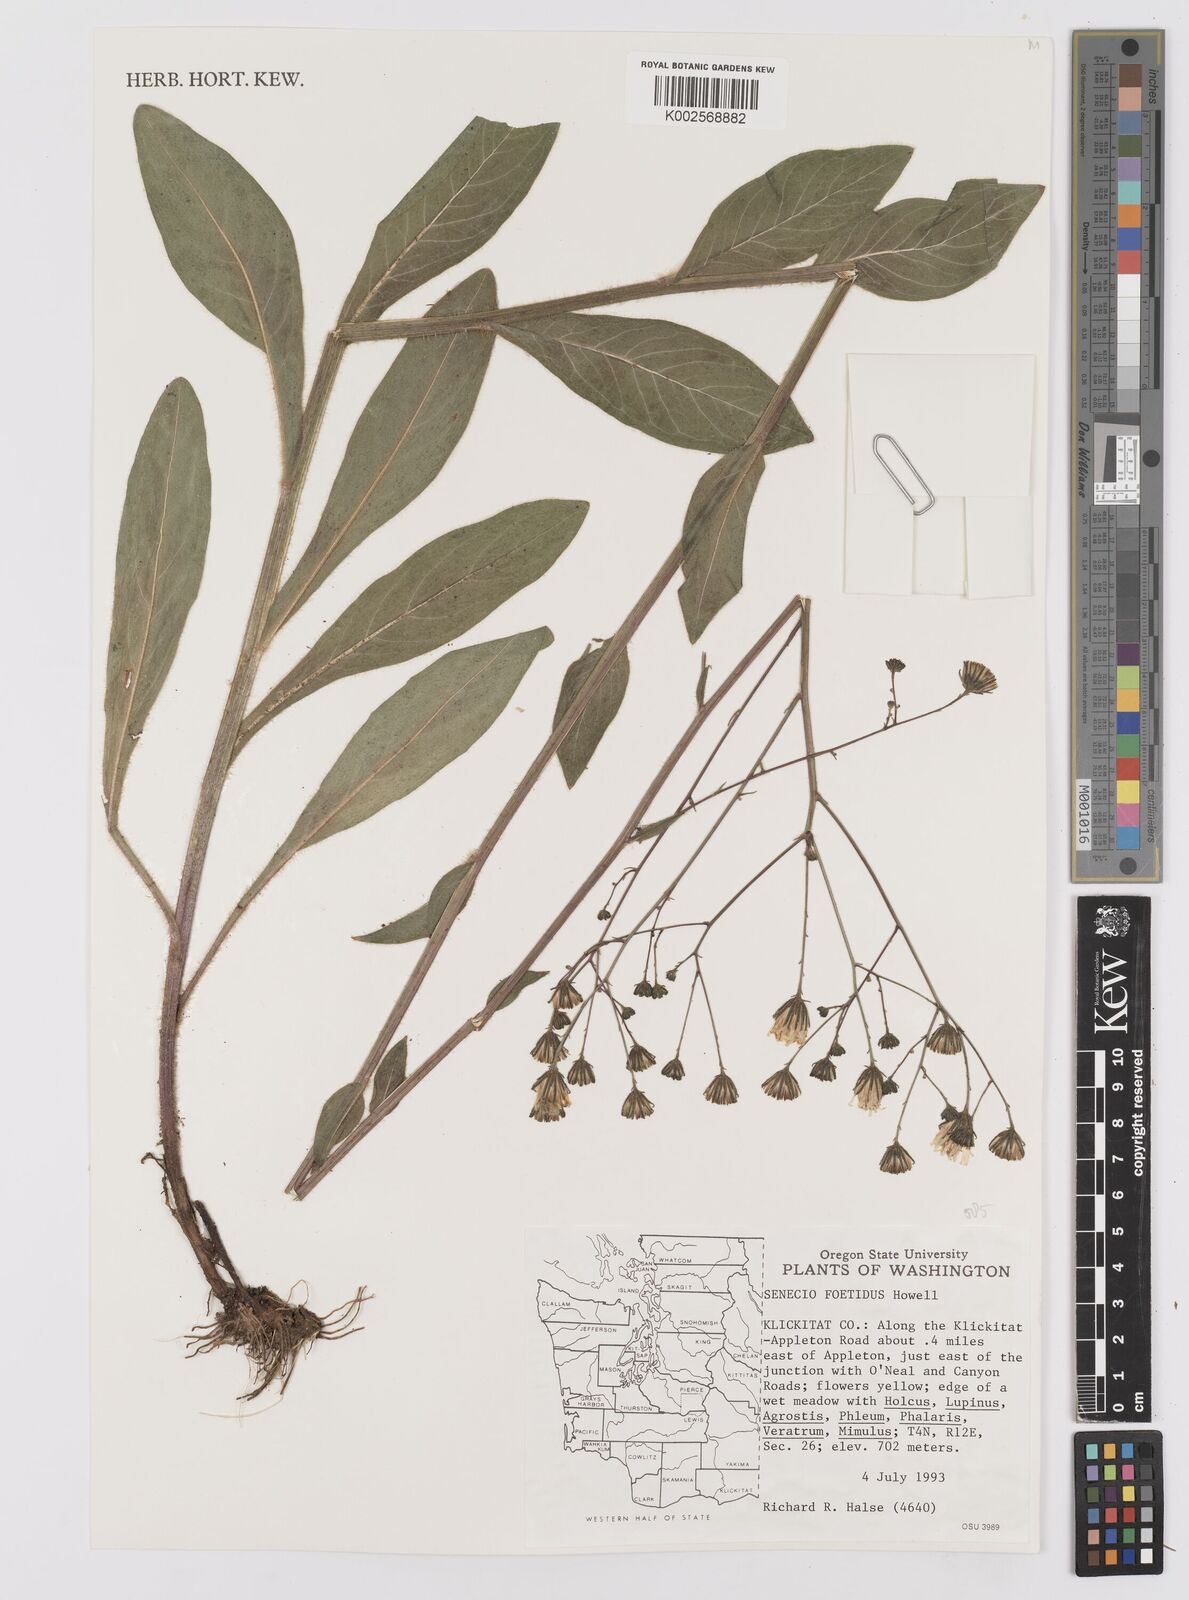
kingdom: Plantae
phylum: Tracheophyta
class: Magnoliopsida
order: Asterales
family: Asteraceae
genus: Senecio
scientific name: Senecio hydrophiloides
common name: Stout meadow groundsel
